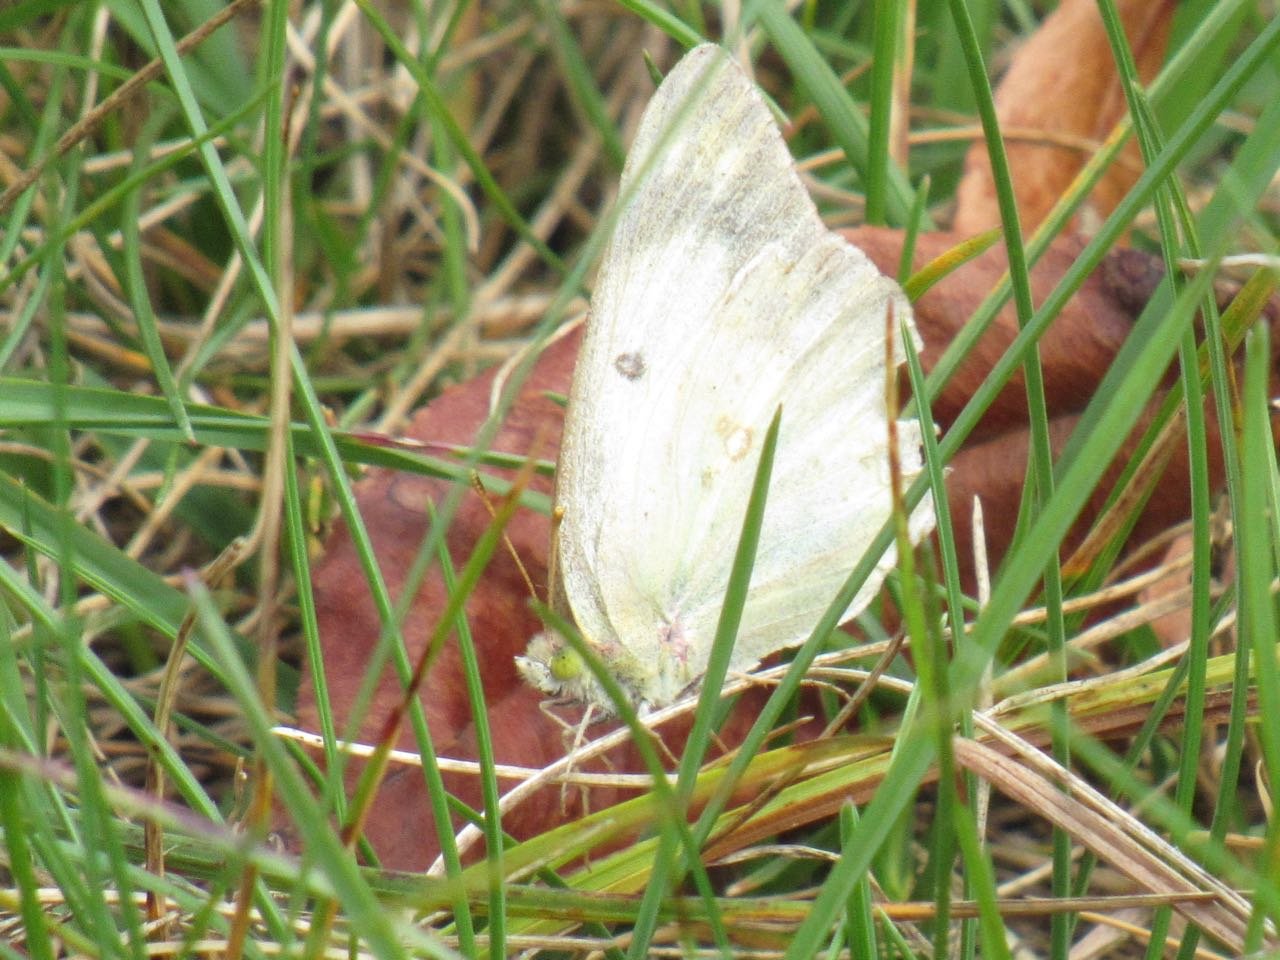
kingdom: Animalia
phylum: Arthropoda
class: Insecta
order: Lepidoptera
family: Pieridae
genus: Colias
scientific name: Colias philodice
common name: Clouded Sulphur
